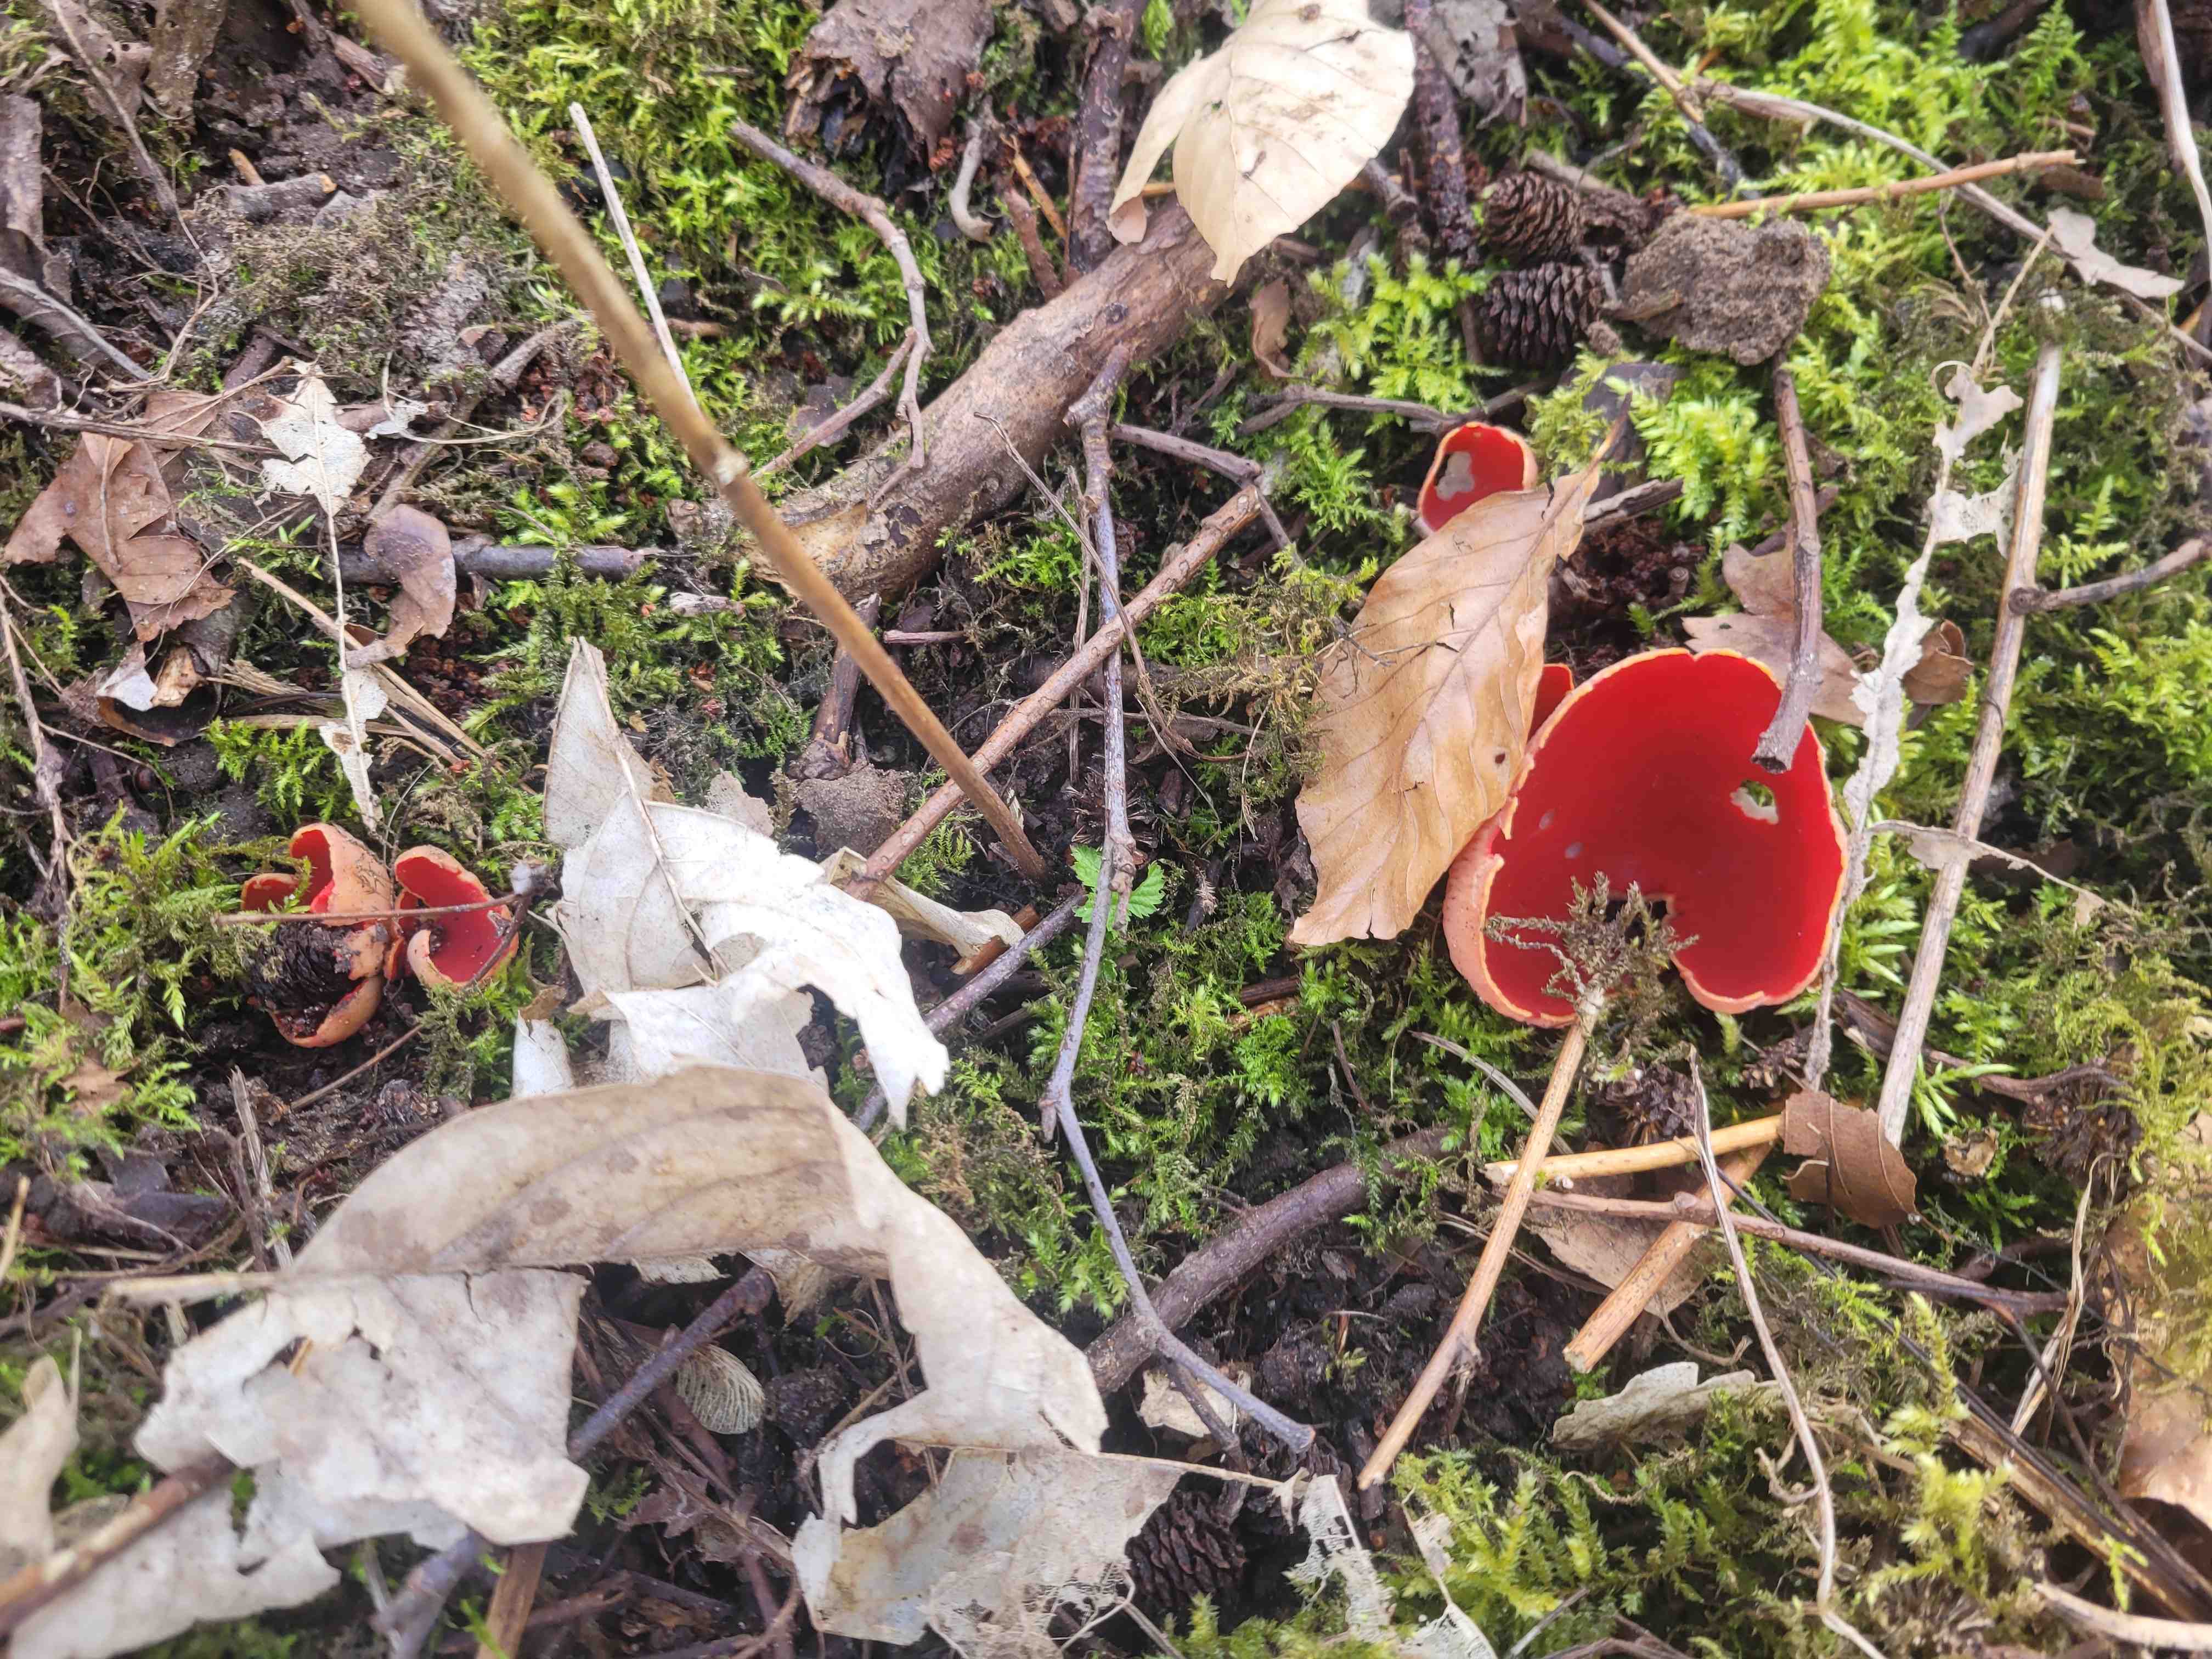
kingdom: Fungi
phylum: Ascomycota
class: Pezizomycetes
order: Pezizales
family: Sarcoscyphaceae
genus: Sarcoscypha
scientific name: Sarcoscypha austriaca
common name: krølhåret pragtbæger
